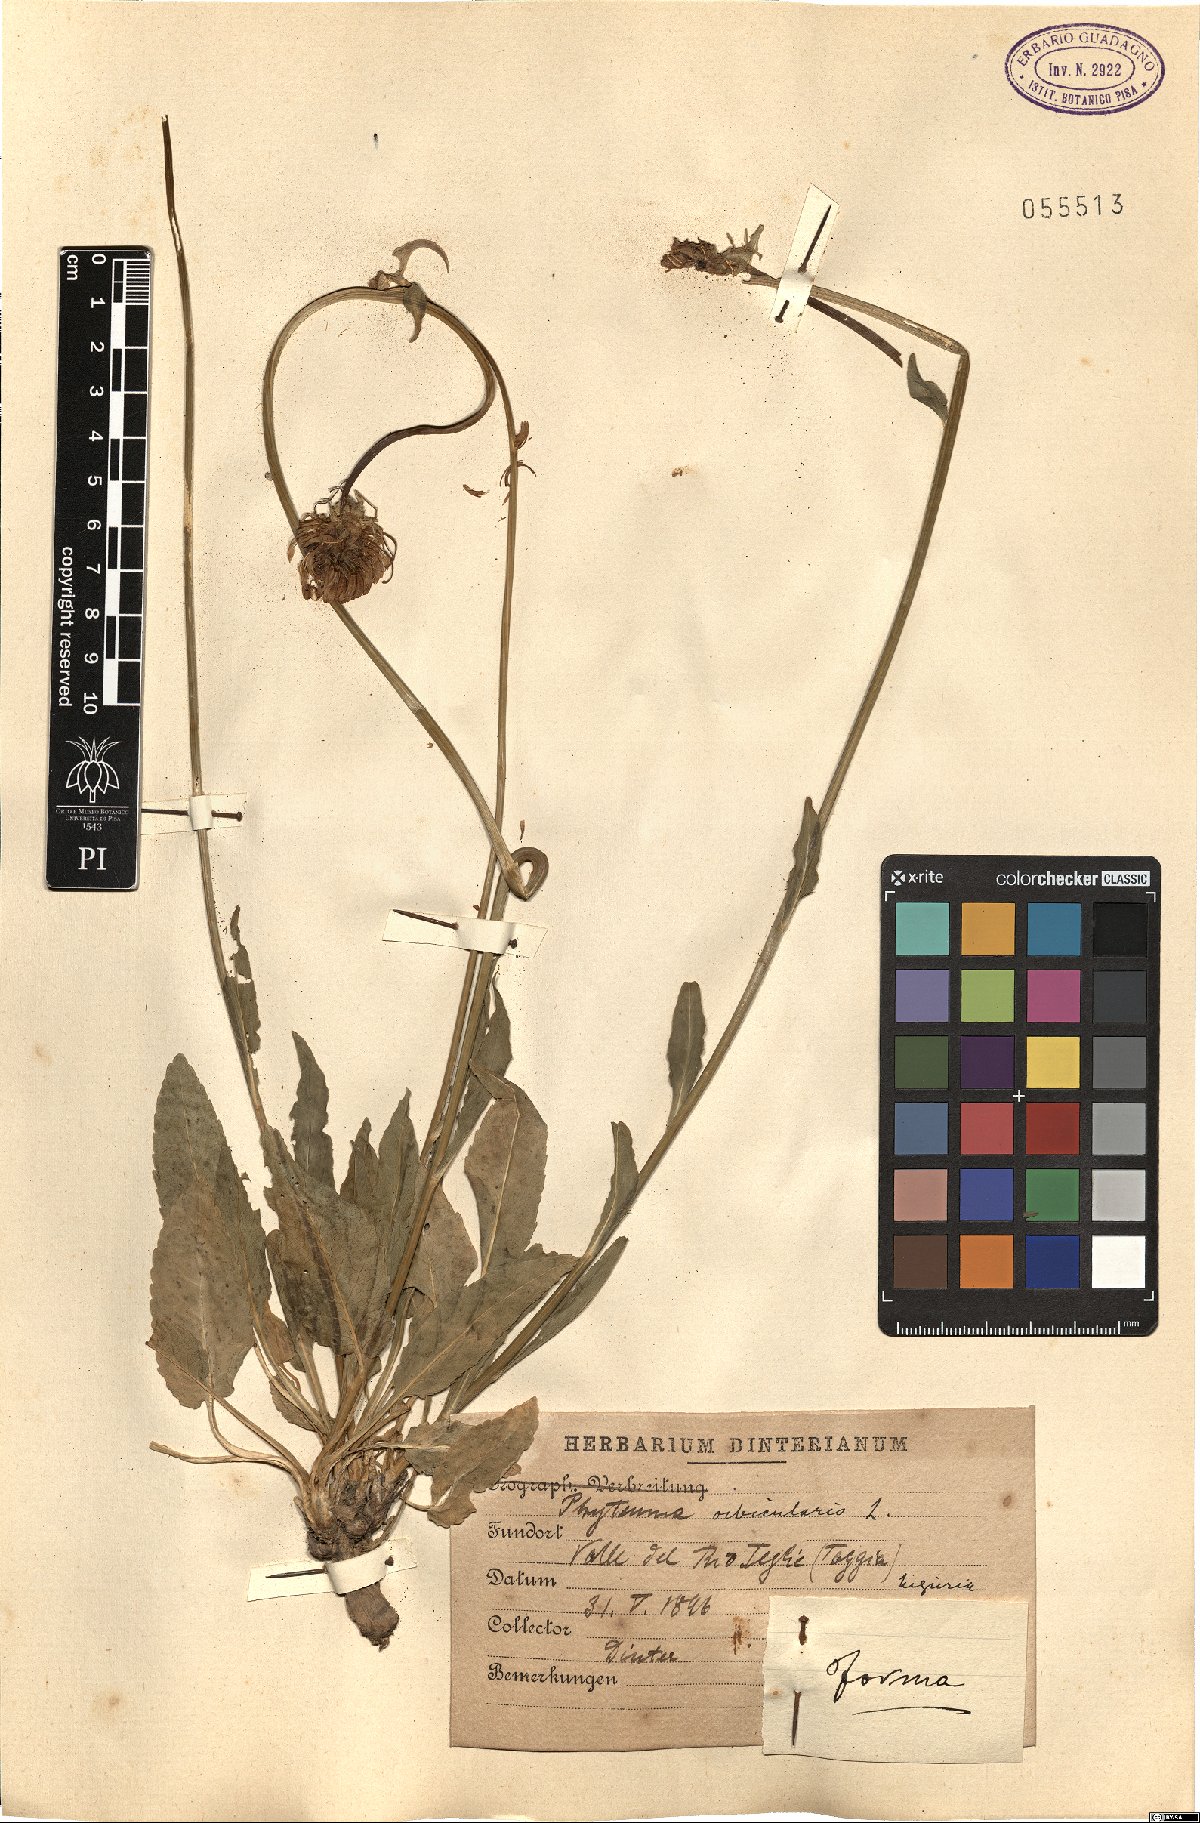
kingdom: Plantae
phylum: Tracheophyta
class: Magnoliopsida
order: Asterales
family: Campanulaceae
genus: Phyteuma
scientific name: Phyteuma orbiculare
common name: Round-headed rampion
